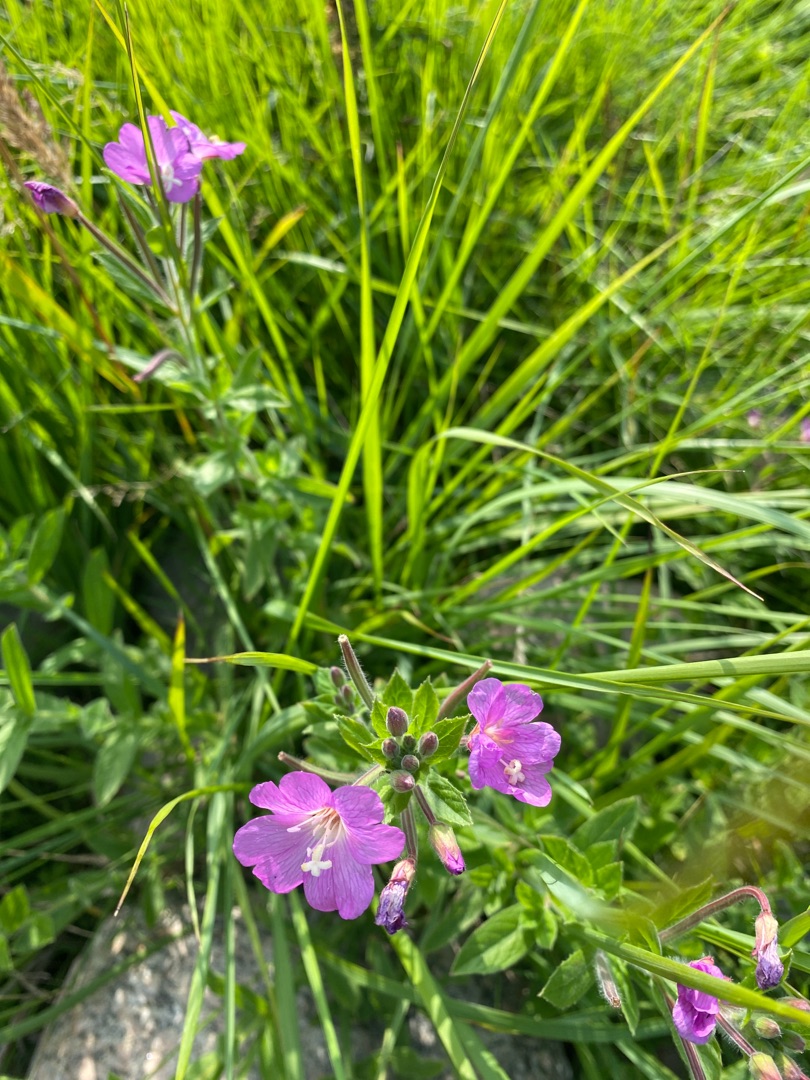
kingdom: Plantae
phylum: Tracheophyta
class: Magnoliopsida
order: Myrtales
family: Onagraceae
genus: Epilobium
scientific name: Epilobium hirsutum
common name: Lådden dueurt
